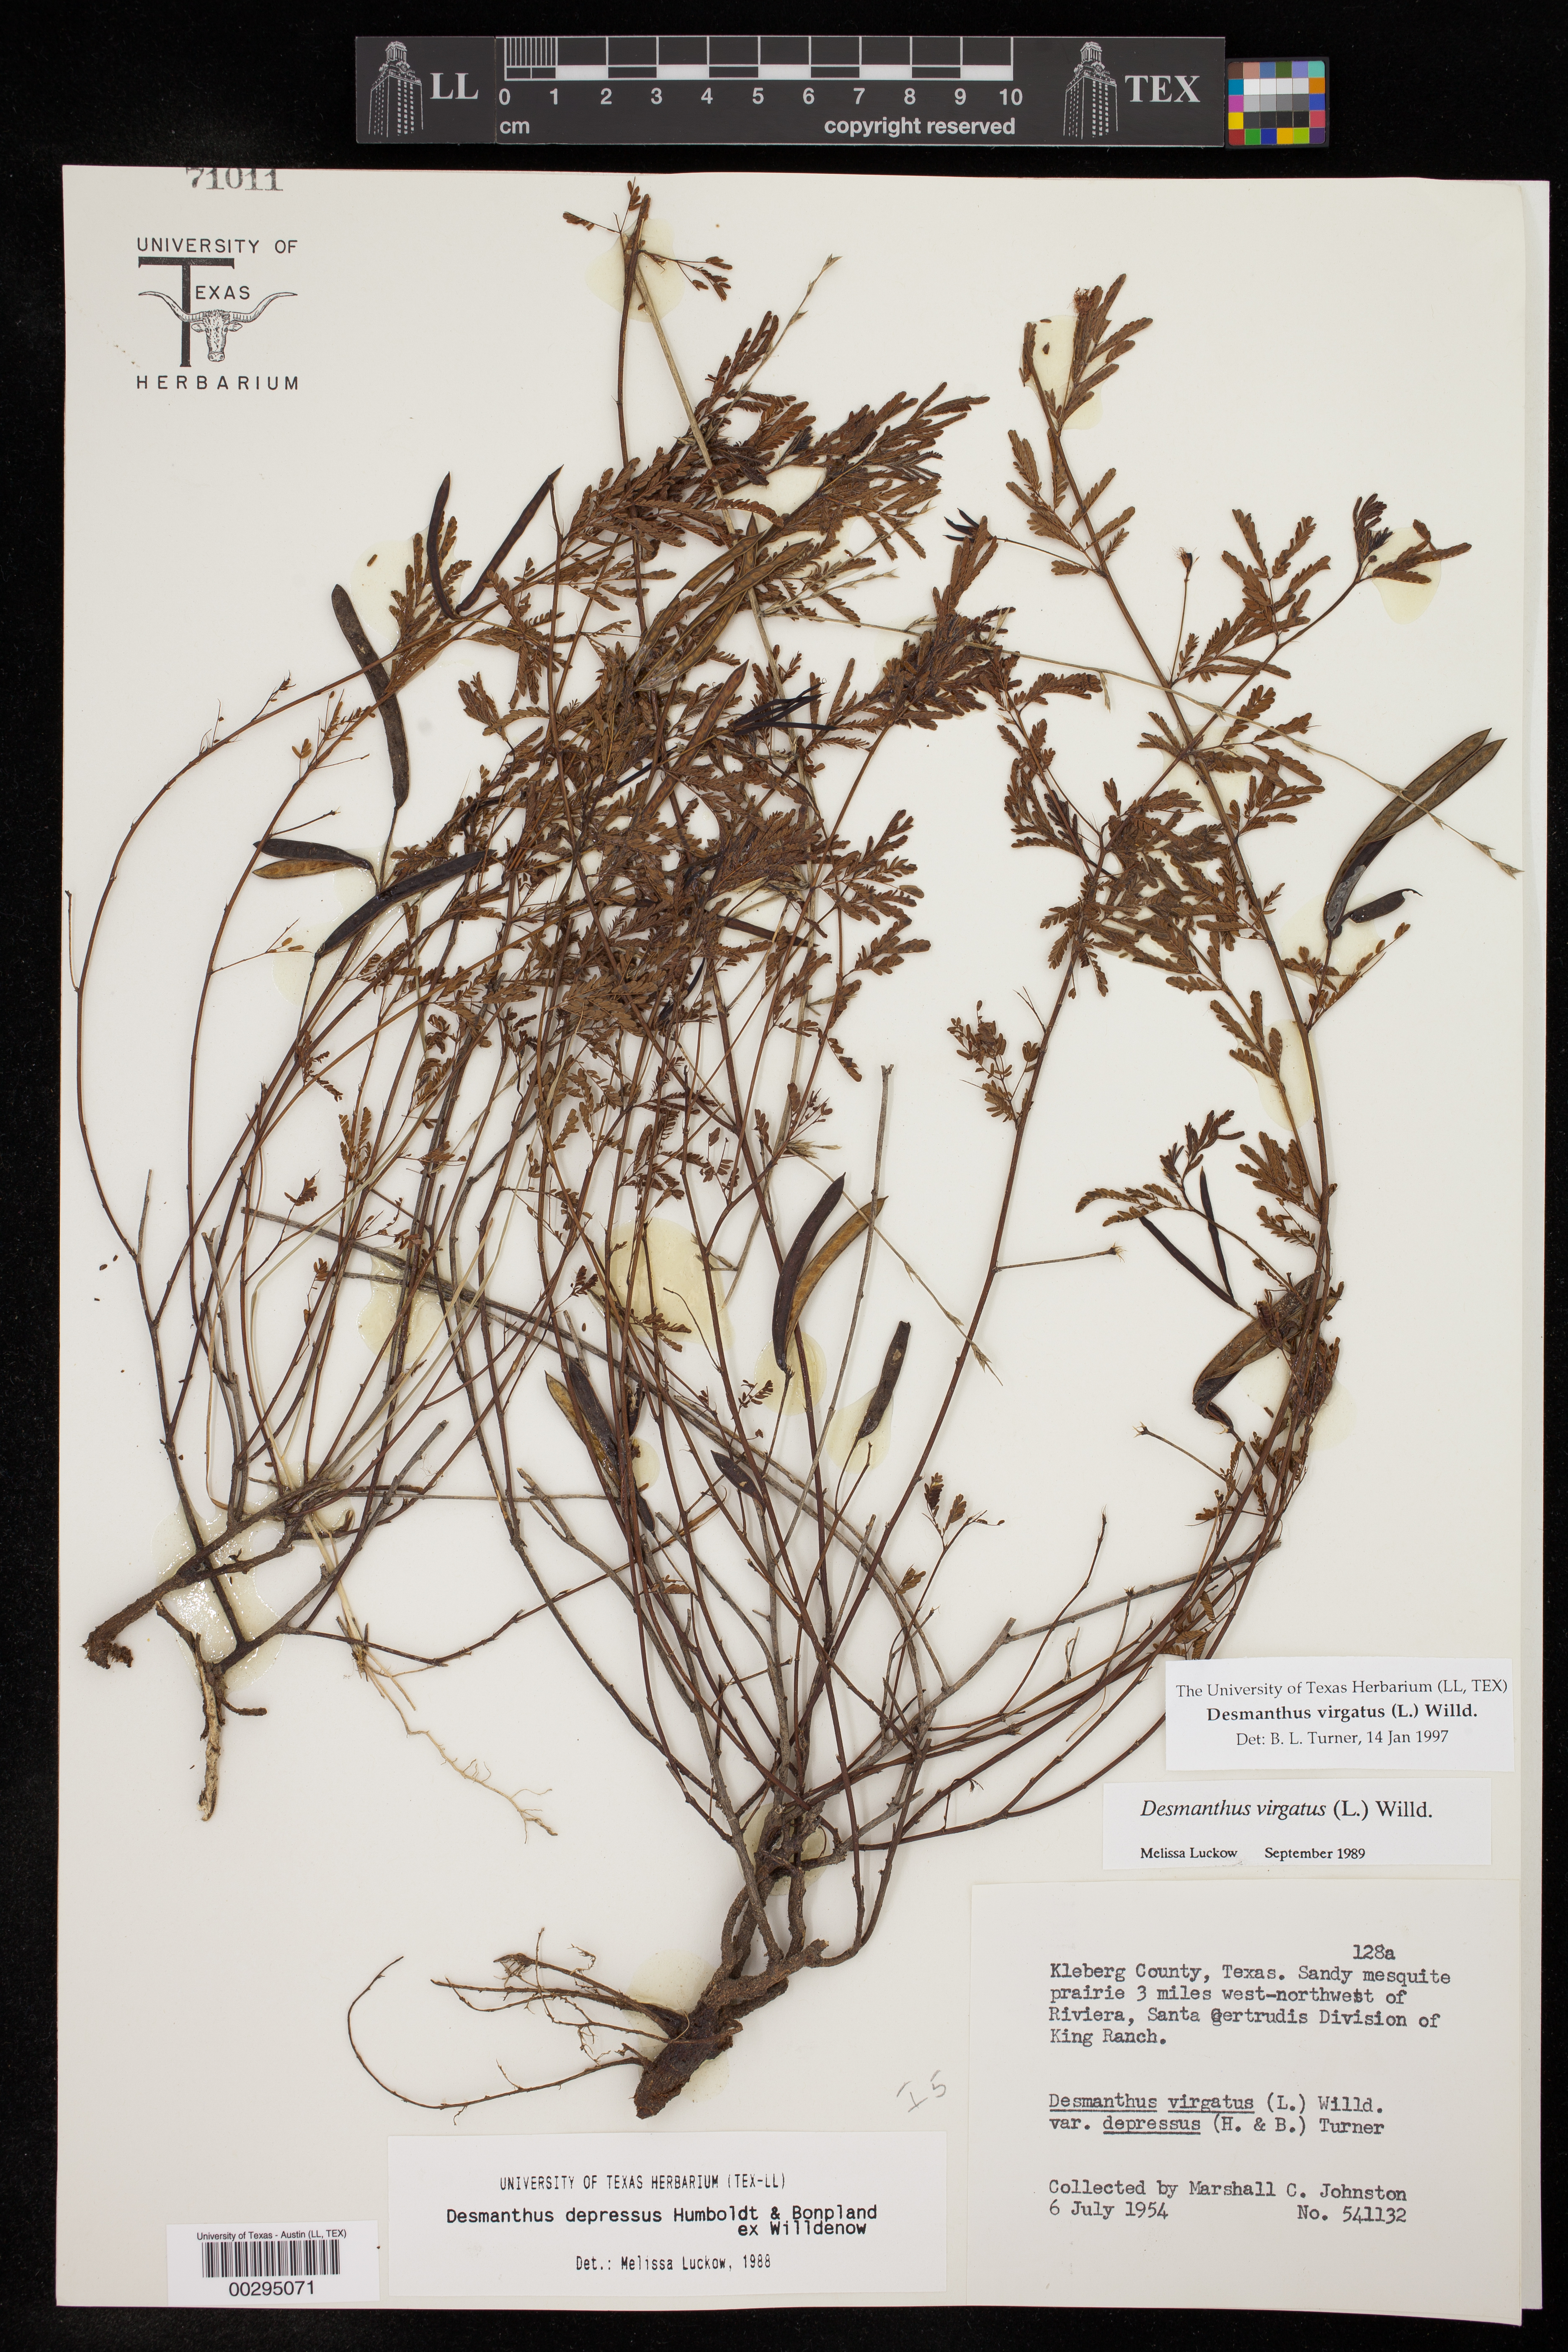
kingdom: Plantae
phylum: Tracheophyta
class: Magnoliopsida
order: Fabales
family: Fabaceae
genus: Desmanthus
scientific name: Desmanthus virgatus
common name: Wild tantan
